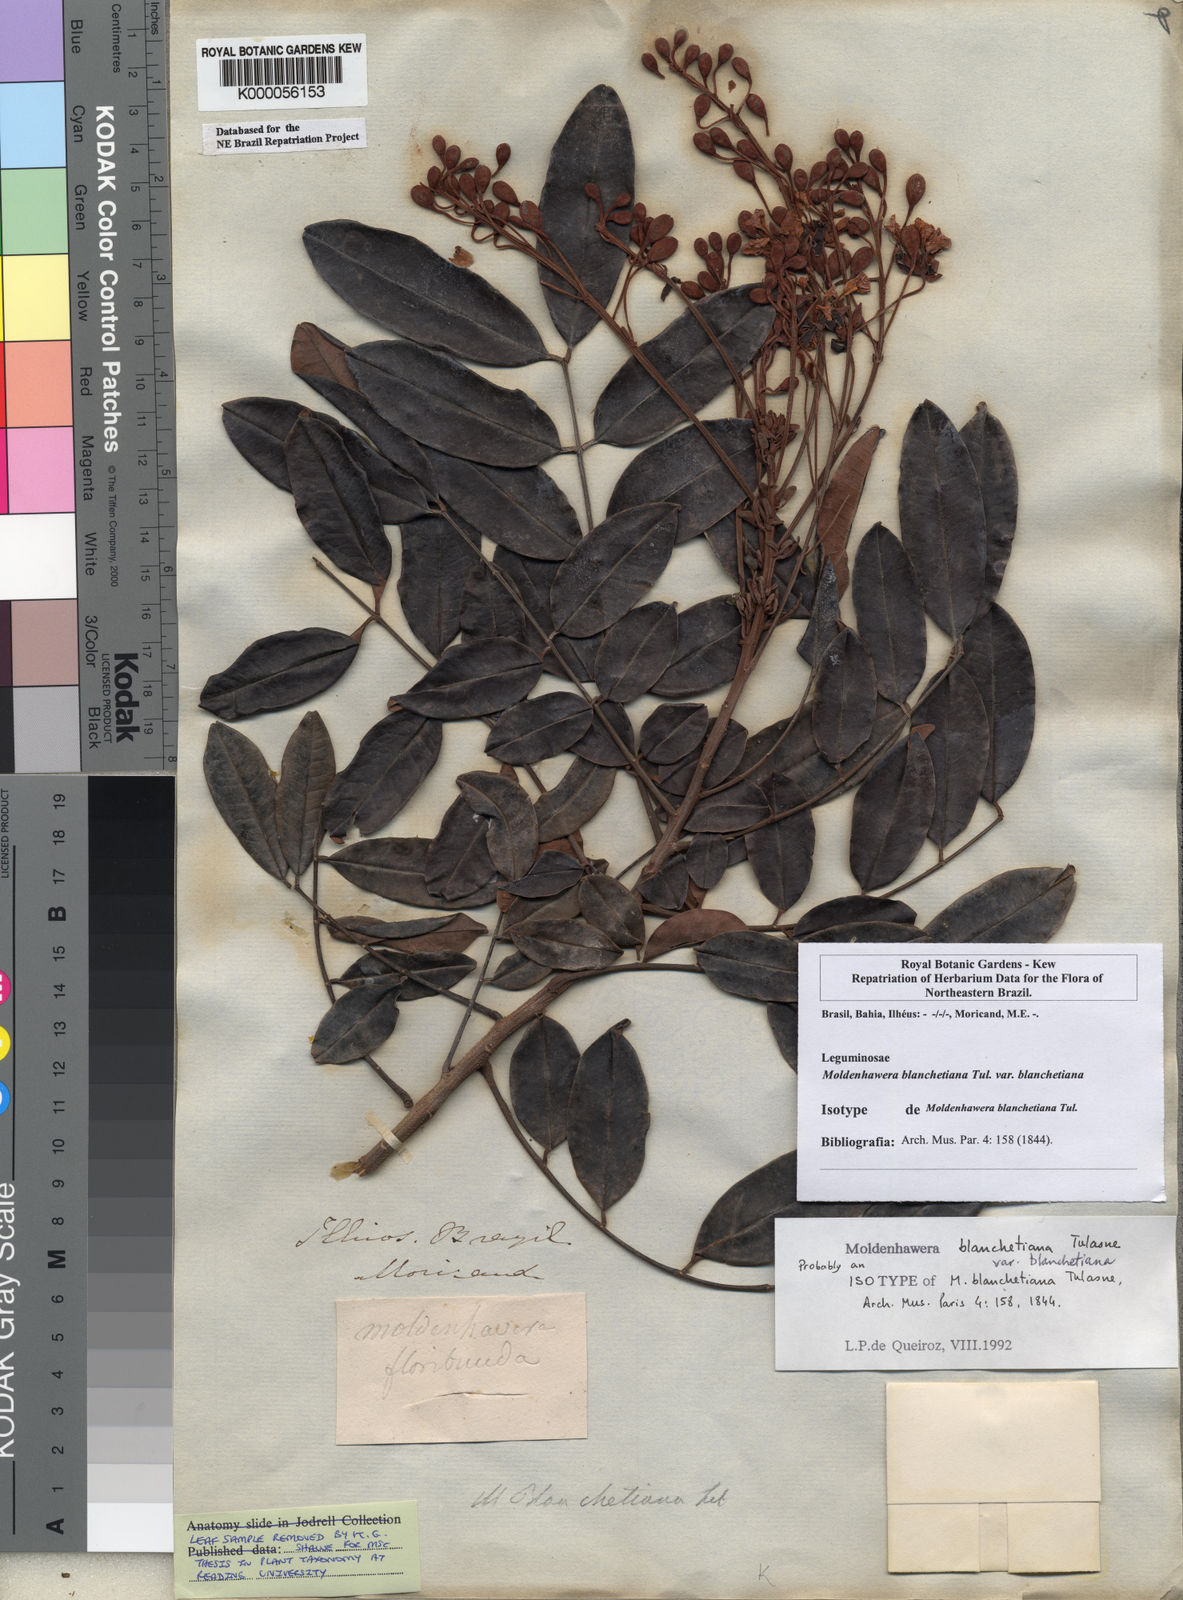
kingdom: Plantae
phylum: Tracheophyta
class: Magnoliopsida
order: Fabales
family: Fabaceae
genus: Moldenhawera
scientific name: Moldenhawera blanchetiana
